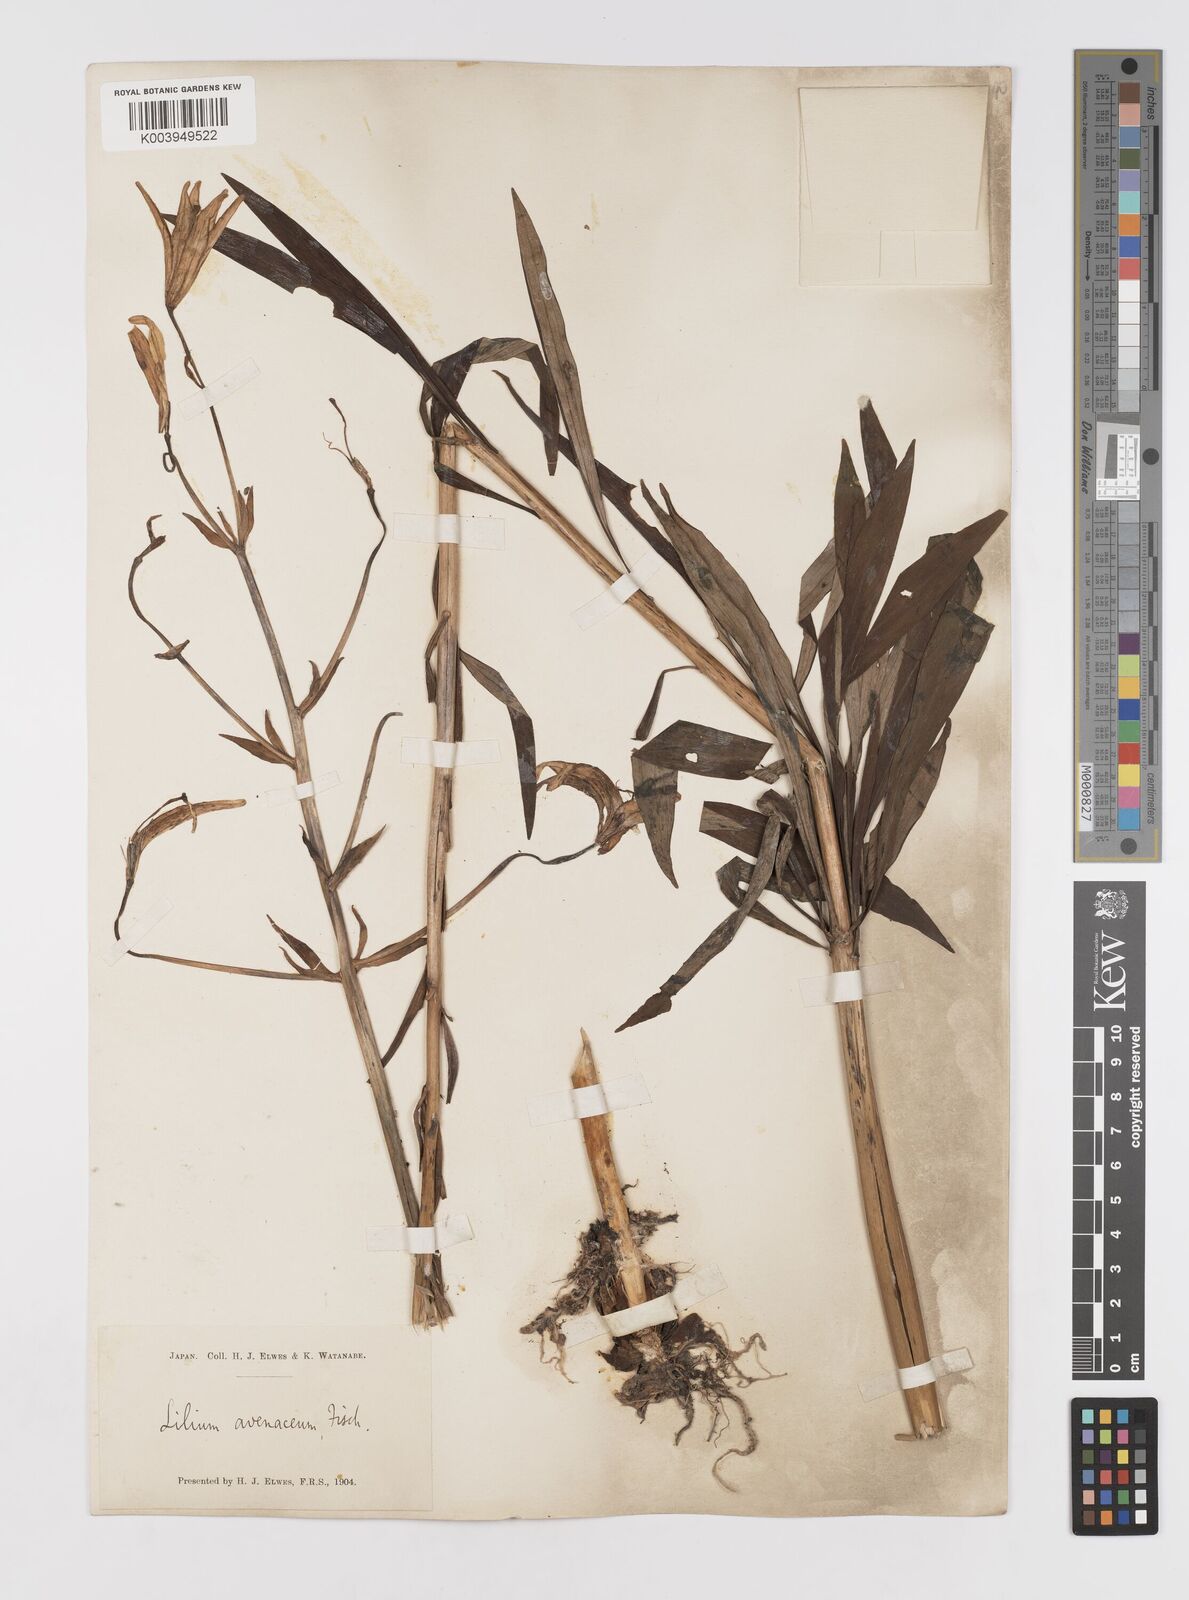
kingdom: Plantae
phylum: Tracheophyta
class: Liliopsida
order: Liliales
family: Liliaceae
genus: Lilium
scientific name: Lilium medeoloides
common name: Wheel lily
